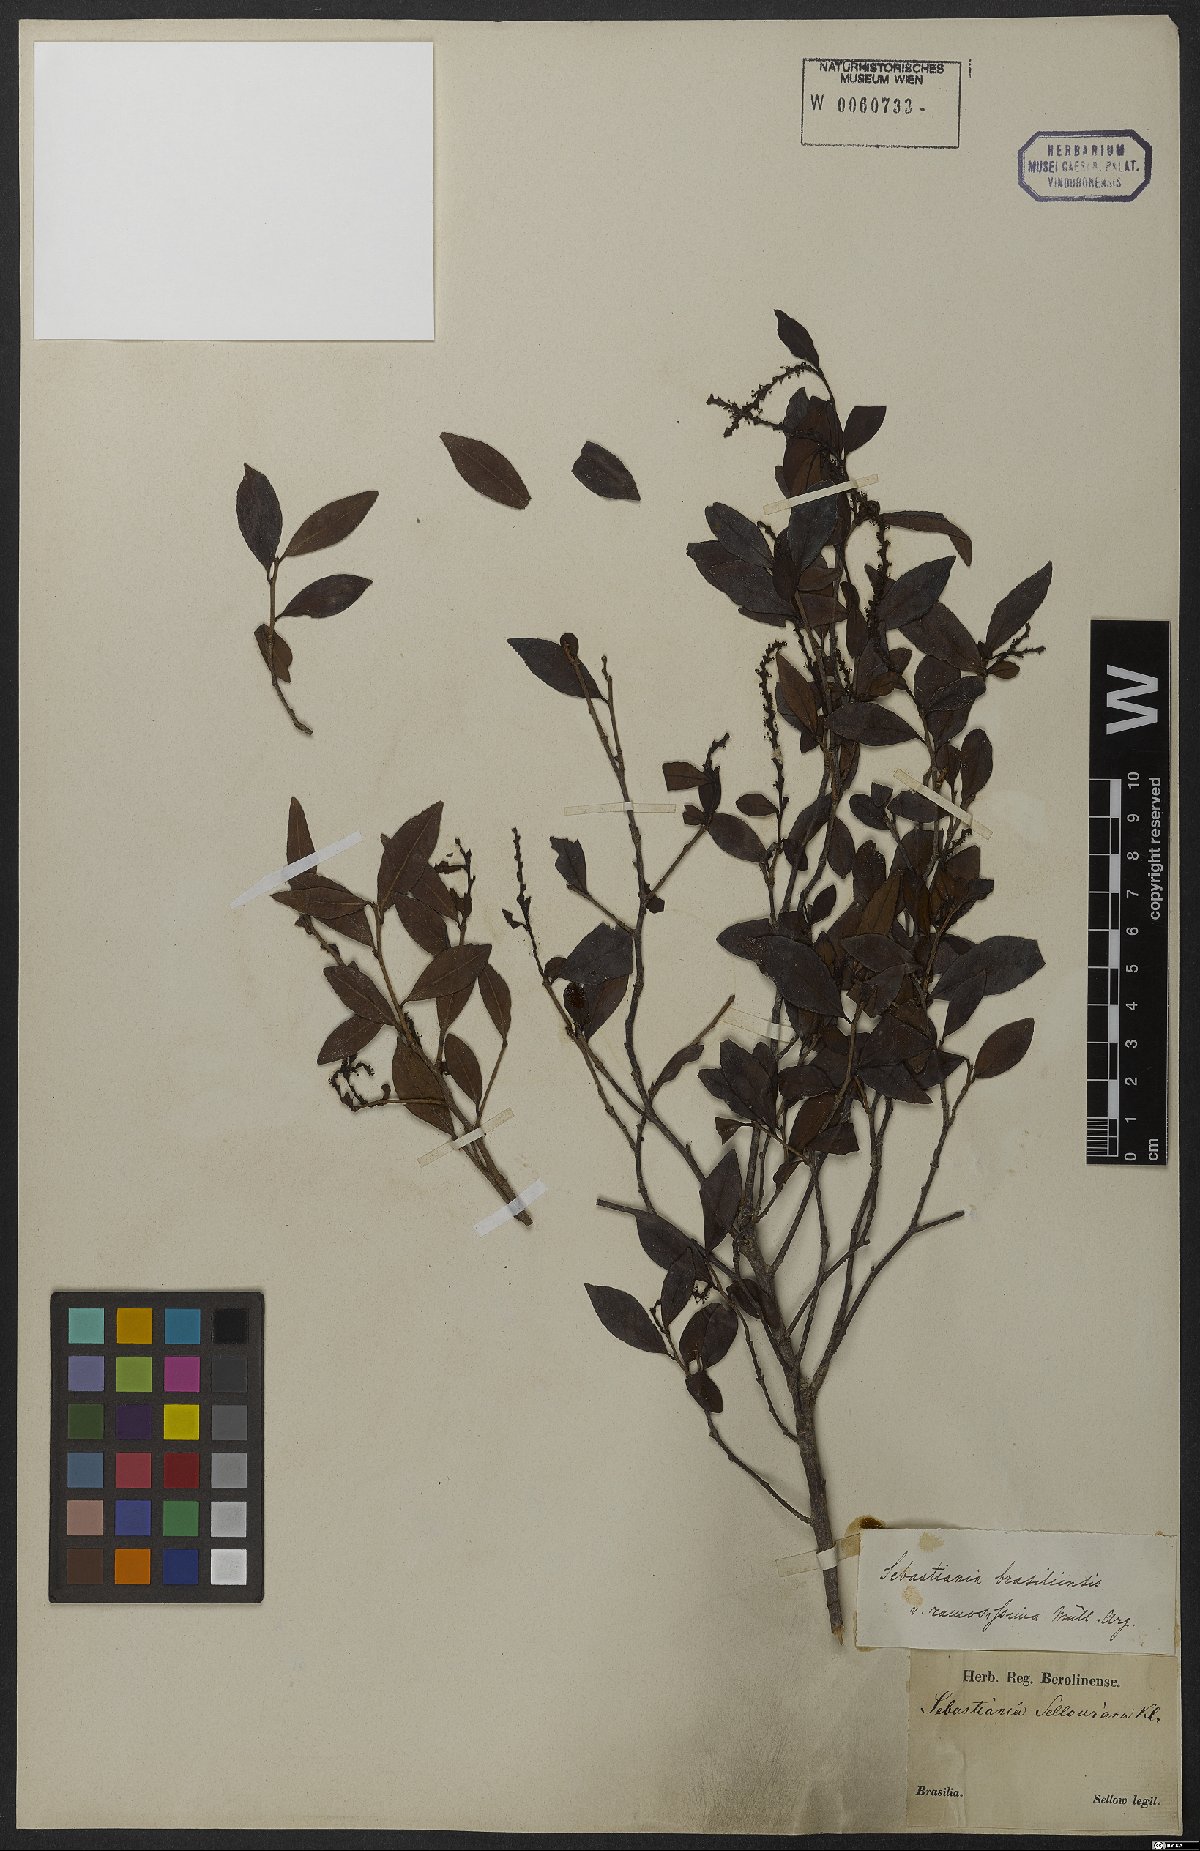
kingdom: Plantae
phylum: Tracheophyta
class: Magnoliopsida
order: Malpighiales
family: Euphorbiaceae
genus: Sebastiania
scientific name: Sebastiania ramosissima
